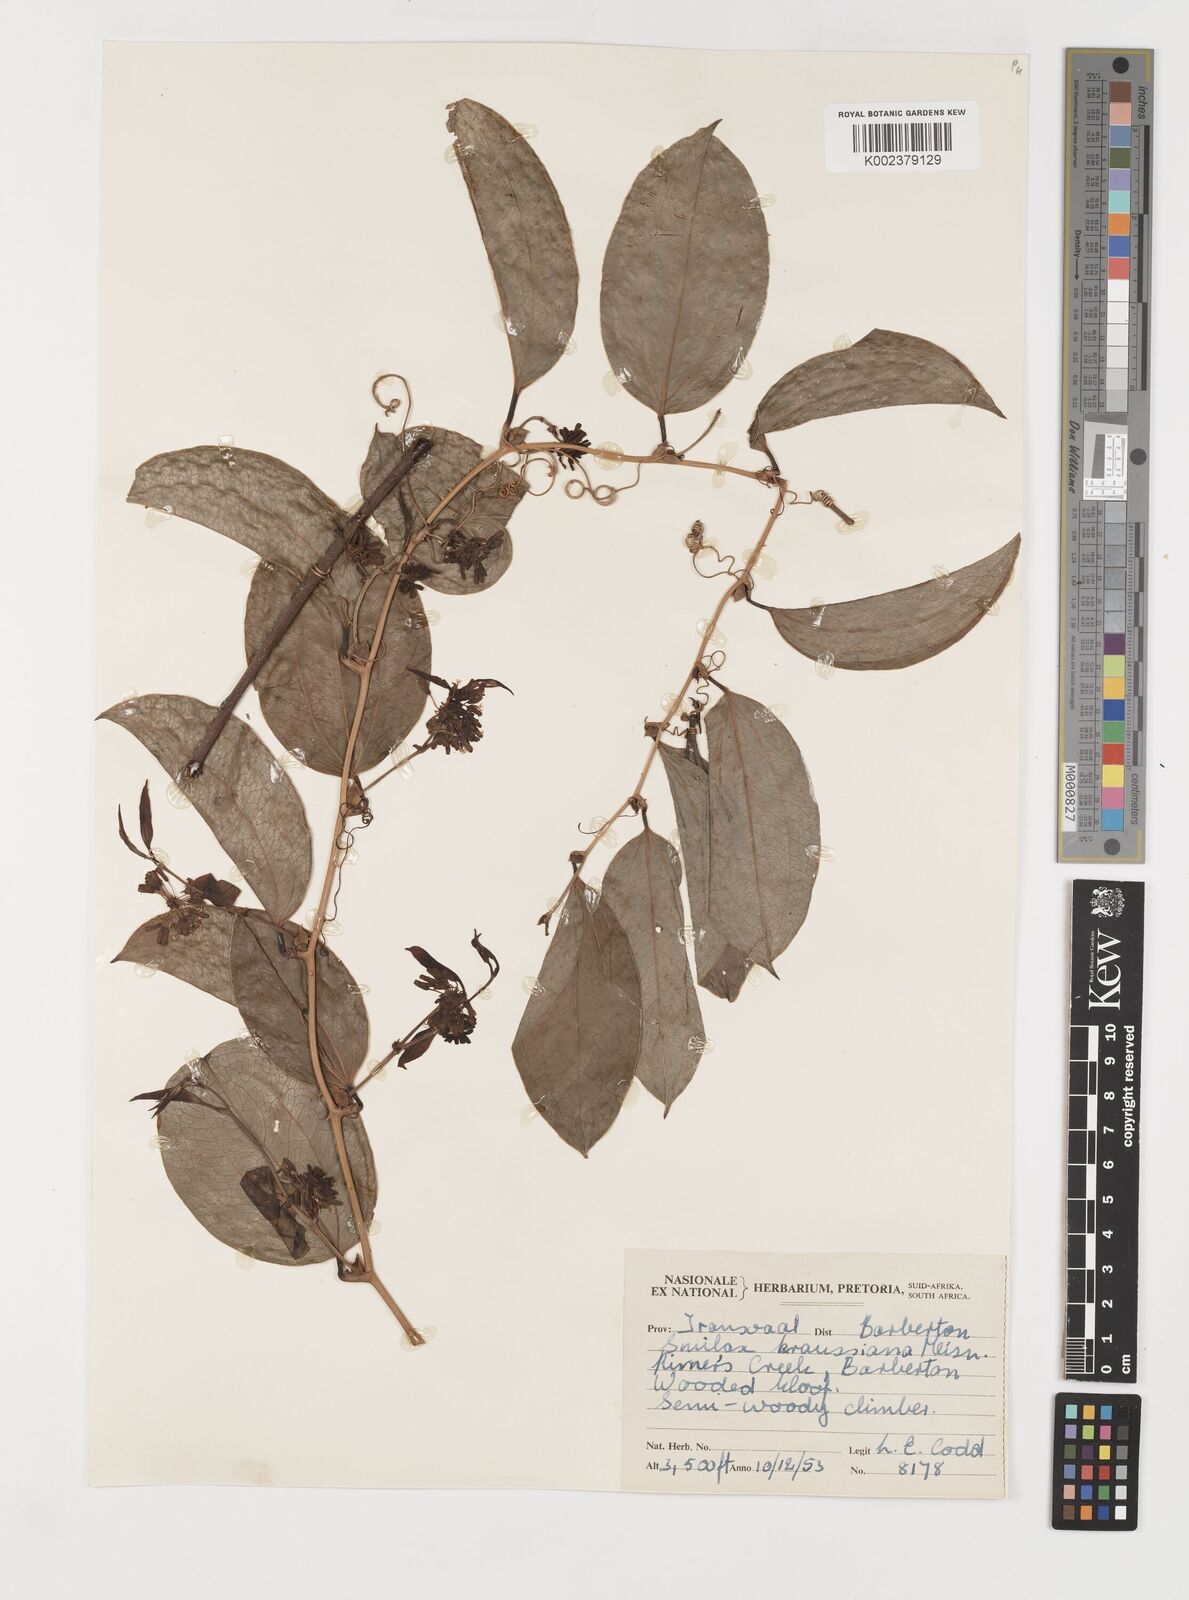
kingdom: Plantae
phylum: Tracheophyta
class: Liliopsida
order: Liliales
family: Smilacaceae
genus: Smilax
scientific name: Smilax anceps
